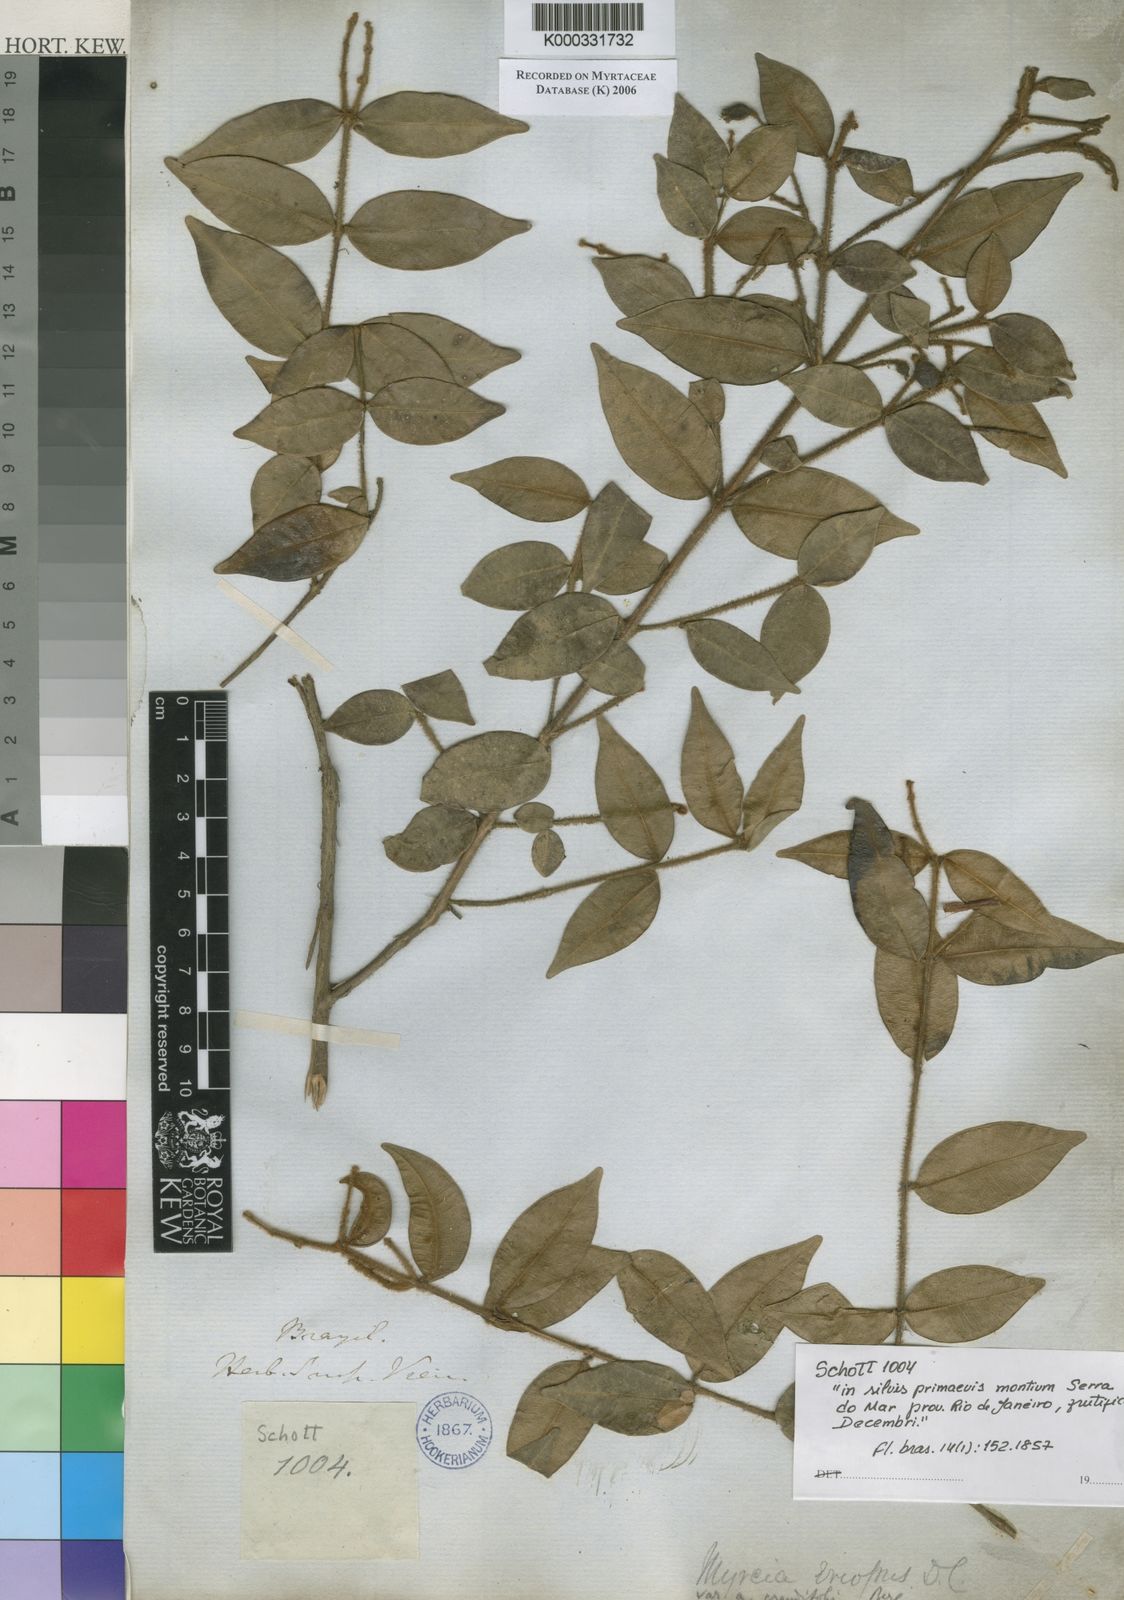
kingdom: Plantae
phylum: Tracheophyta
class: Magnoliopsida
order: Myrtales
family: Myrtaceae
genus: Myrcia
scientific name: Myrcia eriopus
